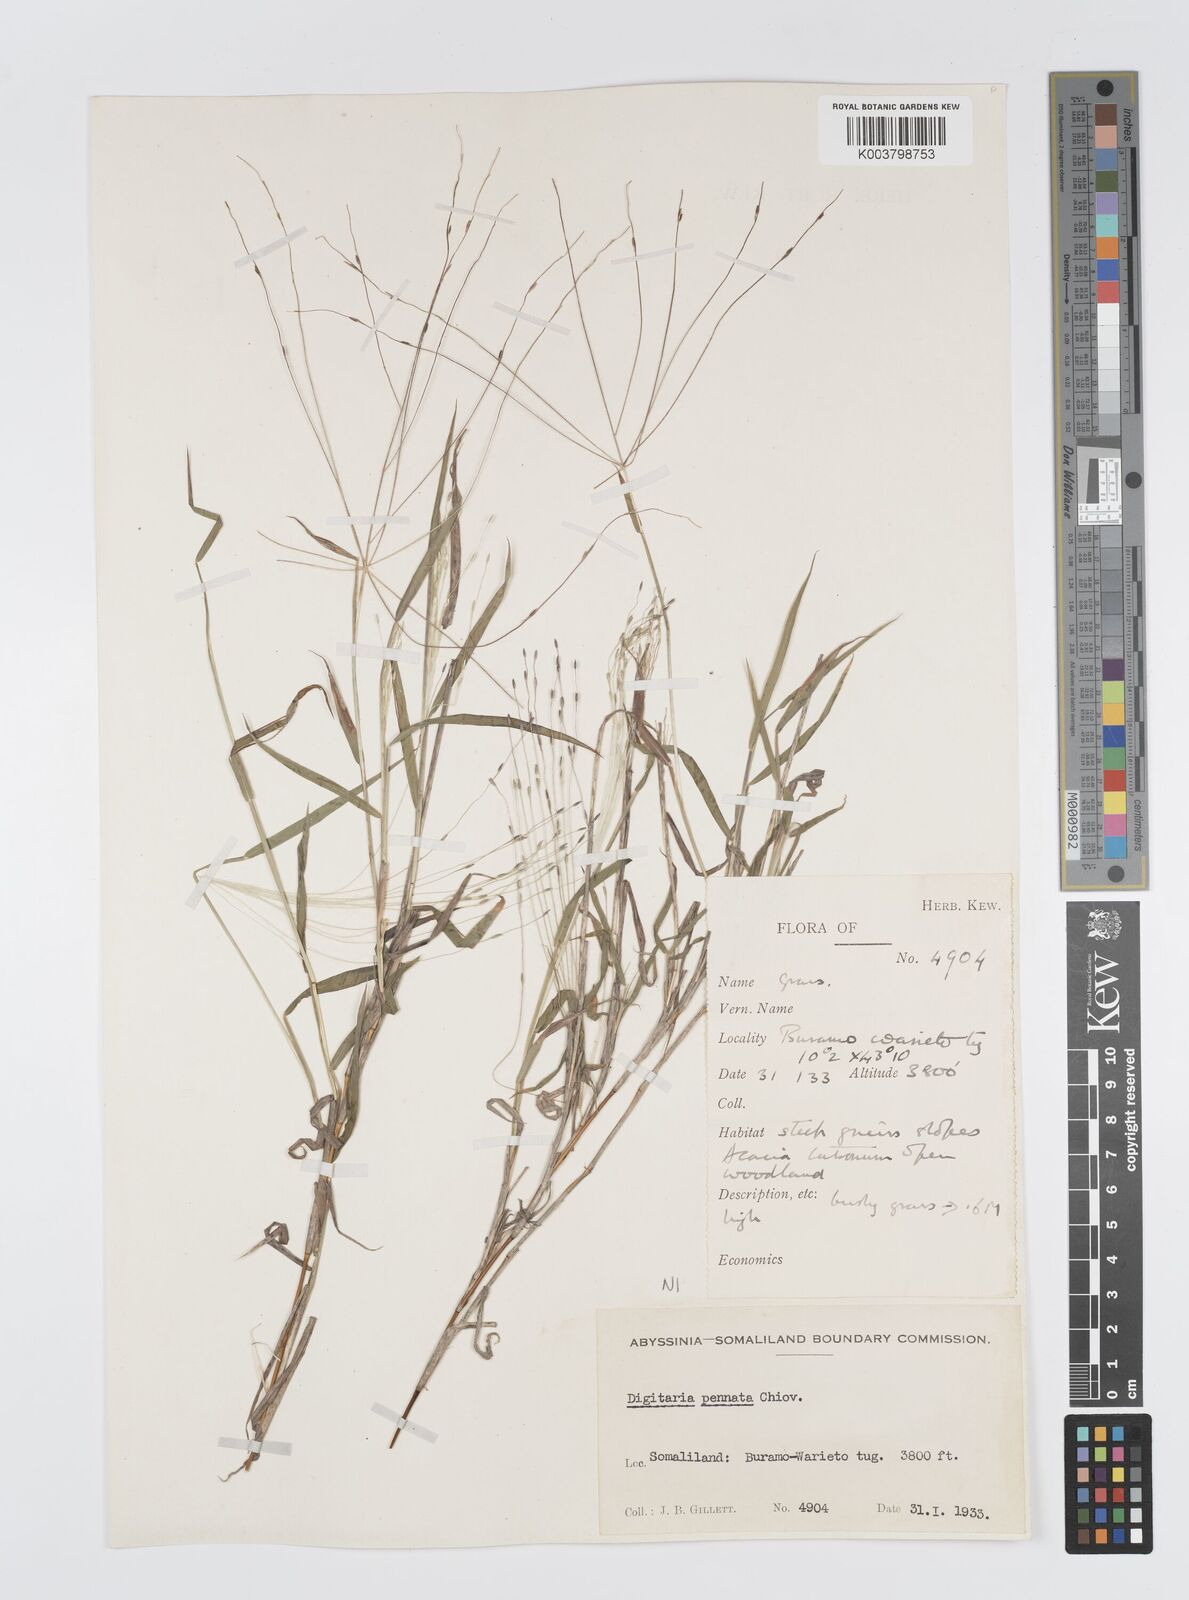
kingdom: Plantae
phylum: Tracheophyta
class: Liliopsida
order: Poales
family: Poaceae
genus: Digitaria
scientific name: Digitaria pennata
